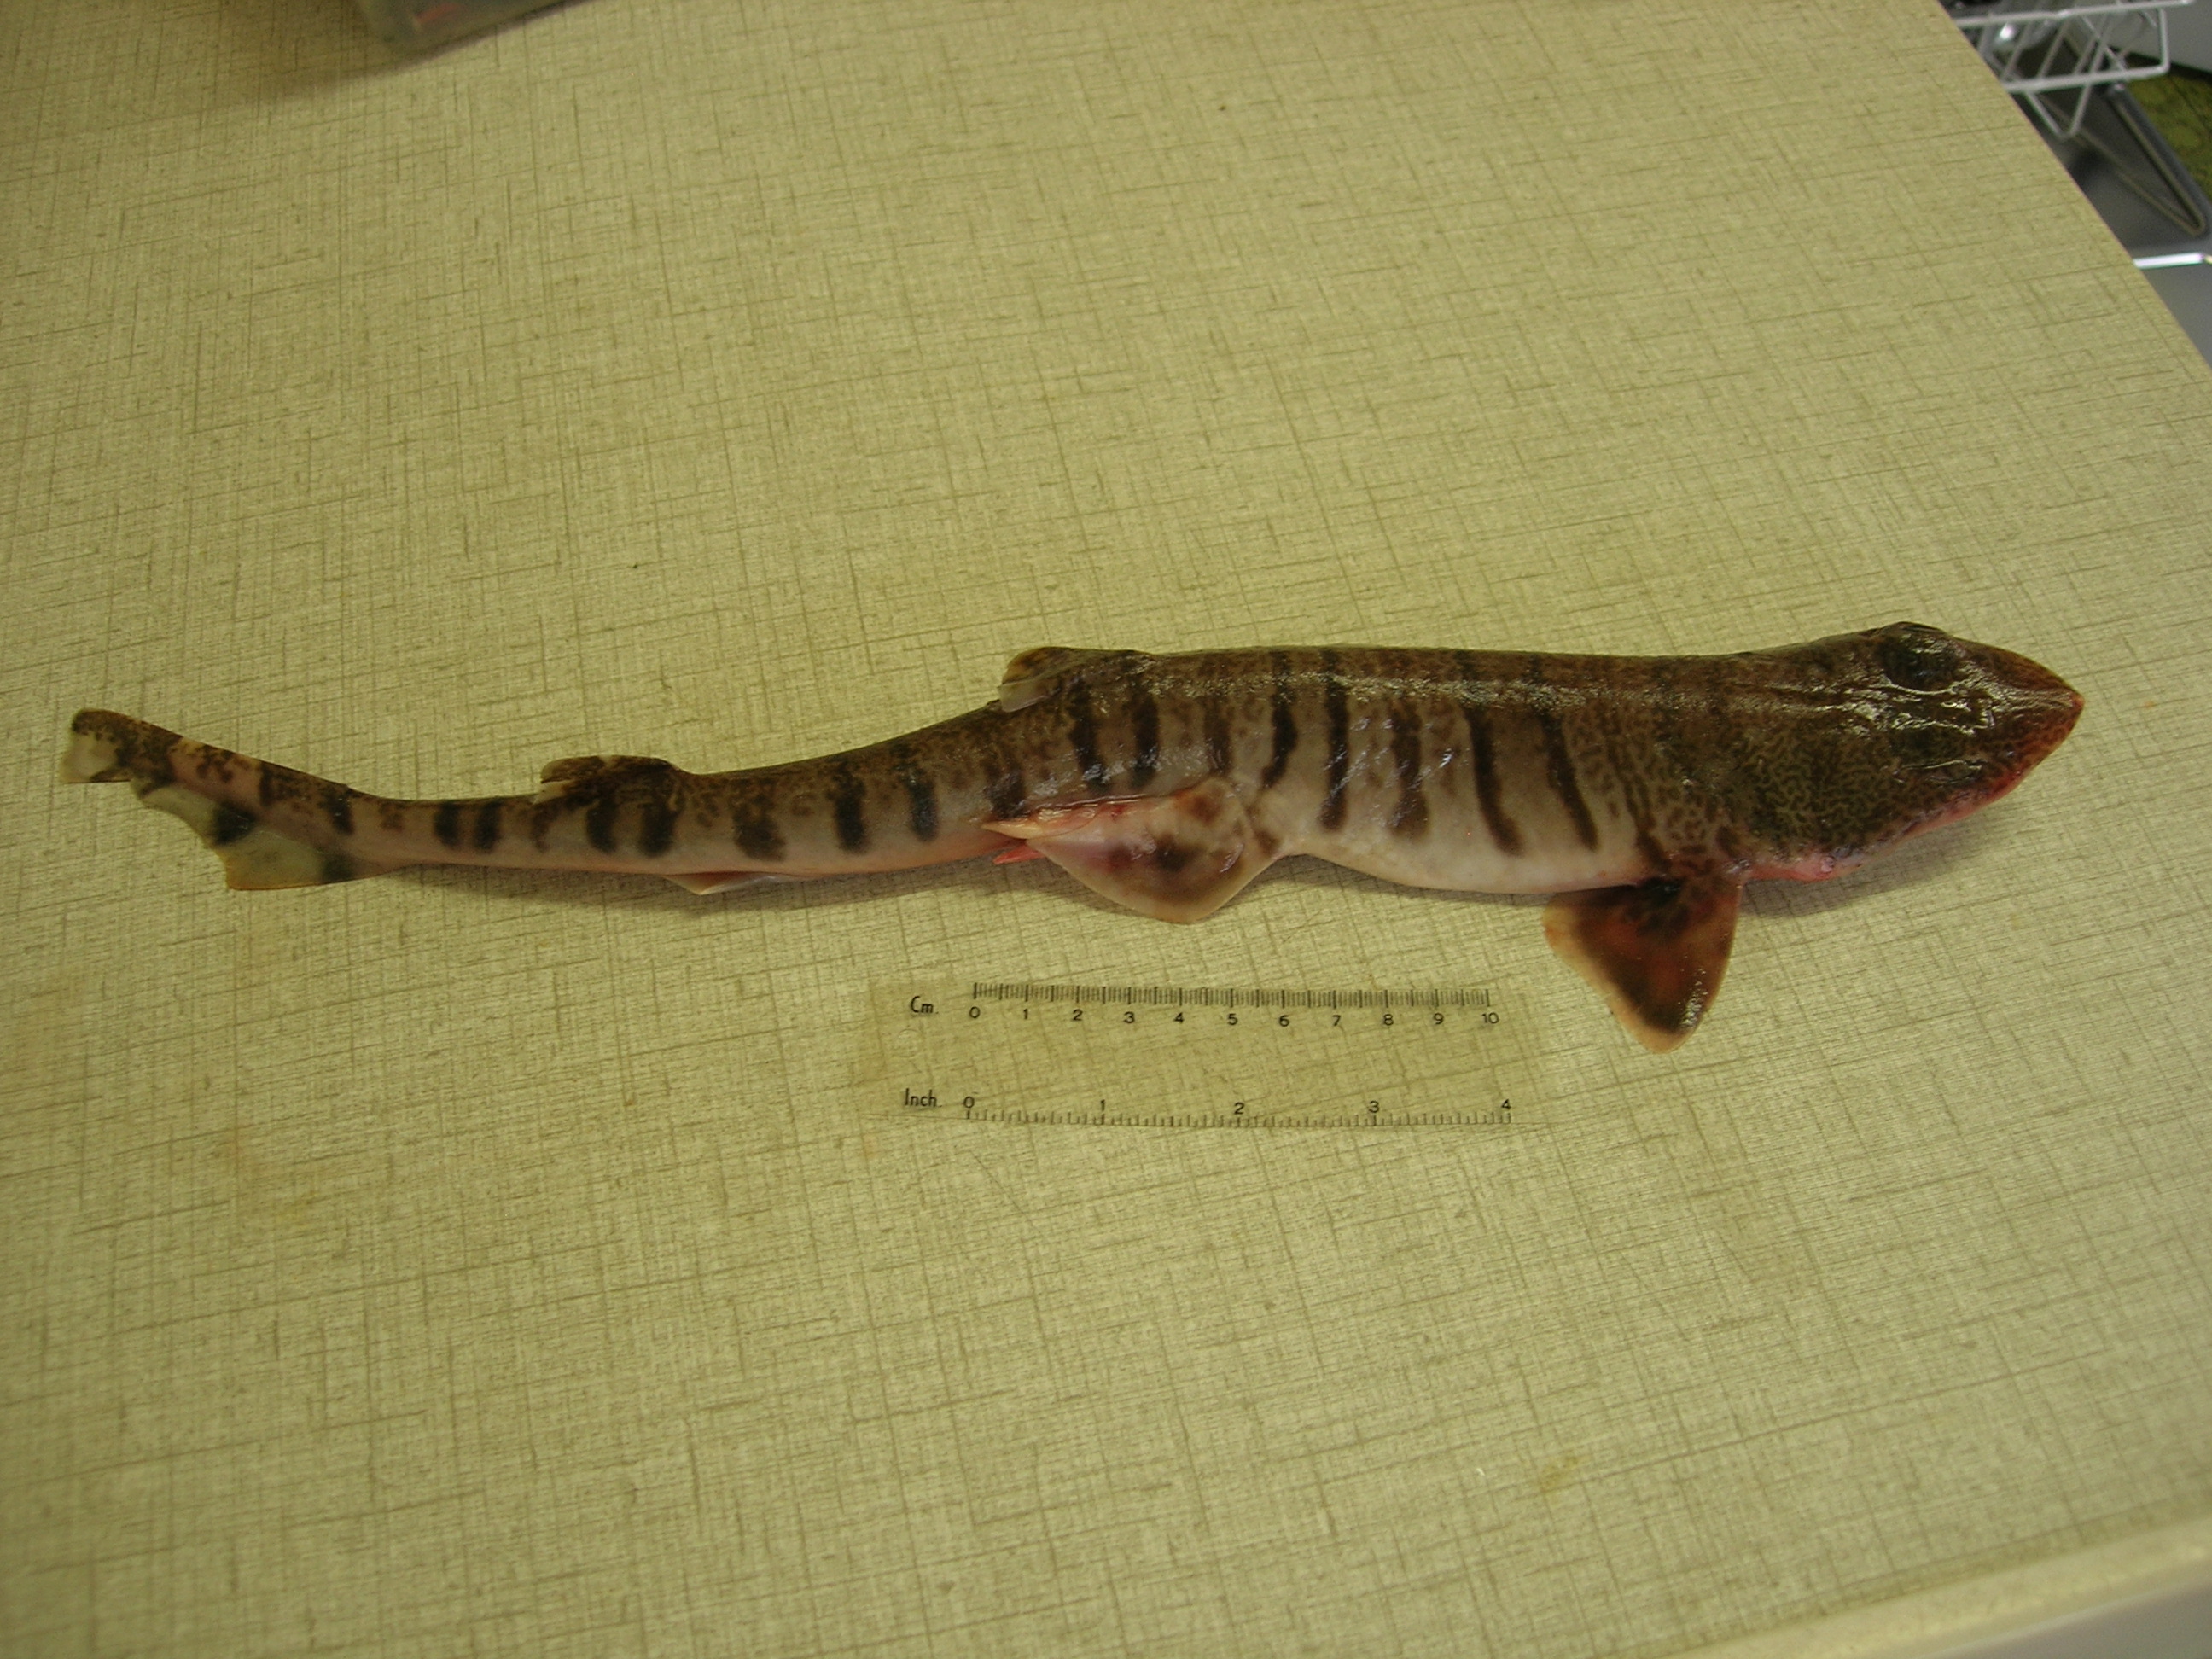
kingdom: Animalia
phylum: Chordata
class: Elasmobranchii
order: Carcharhiniformes
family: Scyliorhinidae
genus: Halaelurus
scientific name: Halaelurus lineatus
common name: Lined catshark
